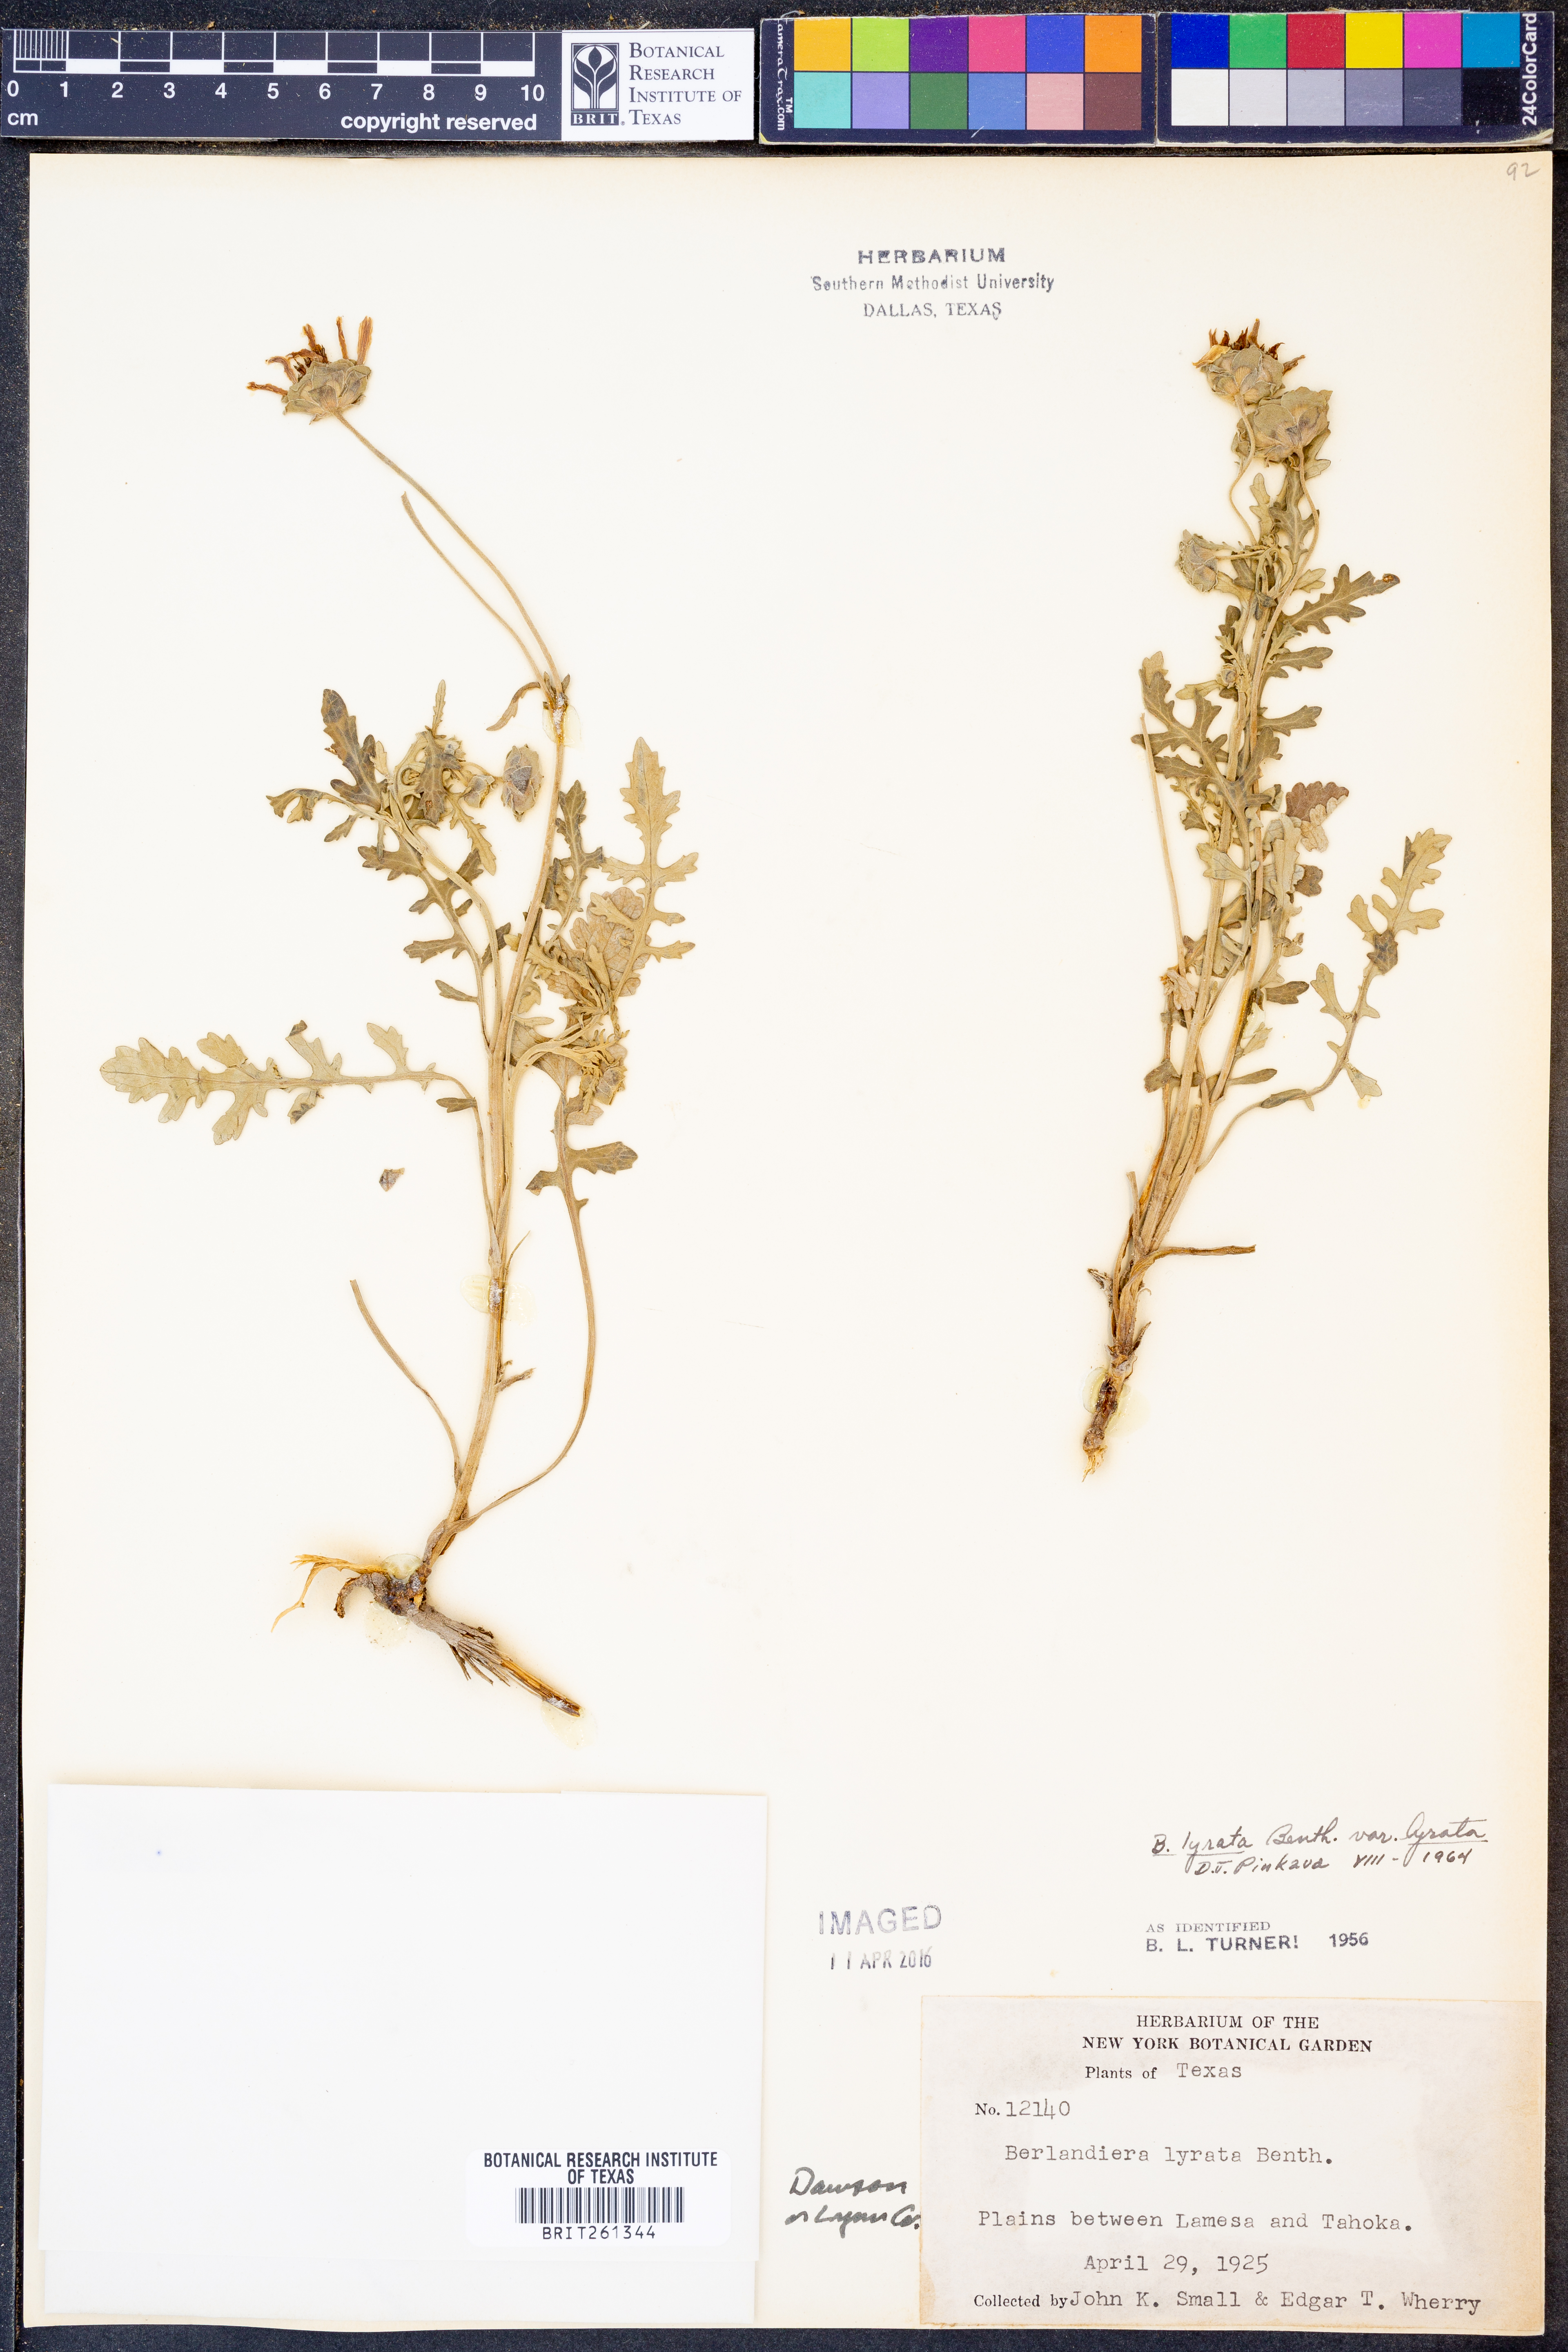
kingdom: Plantae
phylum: Tracheophyta
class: Magnoliopsida
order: Asterales
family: Asteraceae
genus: Berlandiera
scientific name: Berlandiera lyrata
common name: Chocolate-flower
